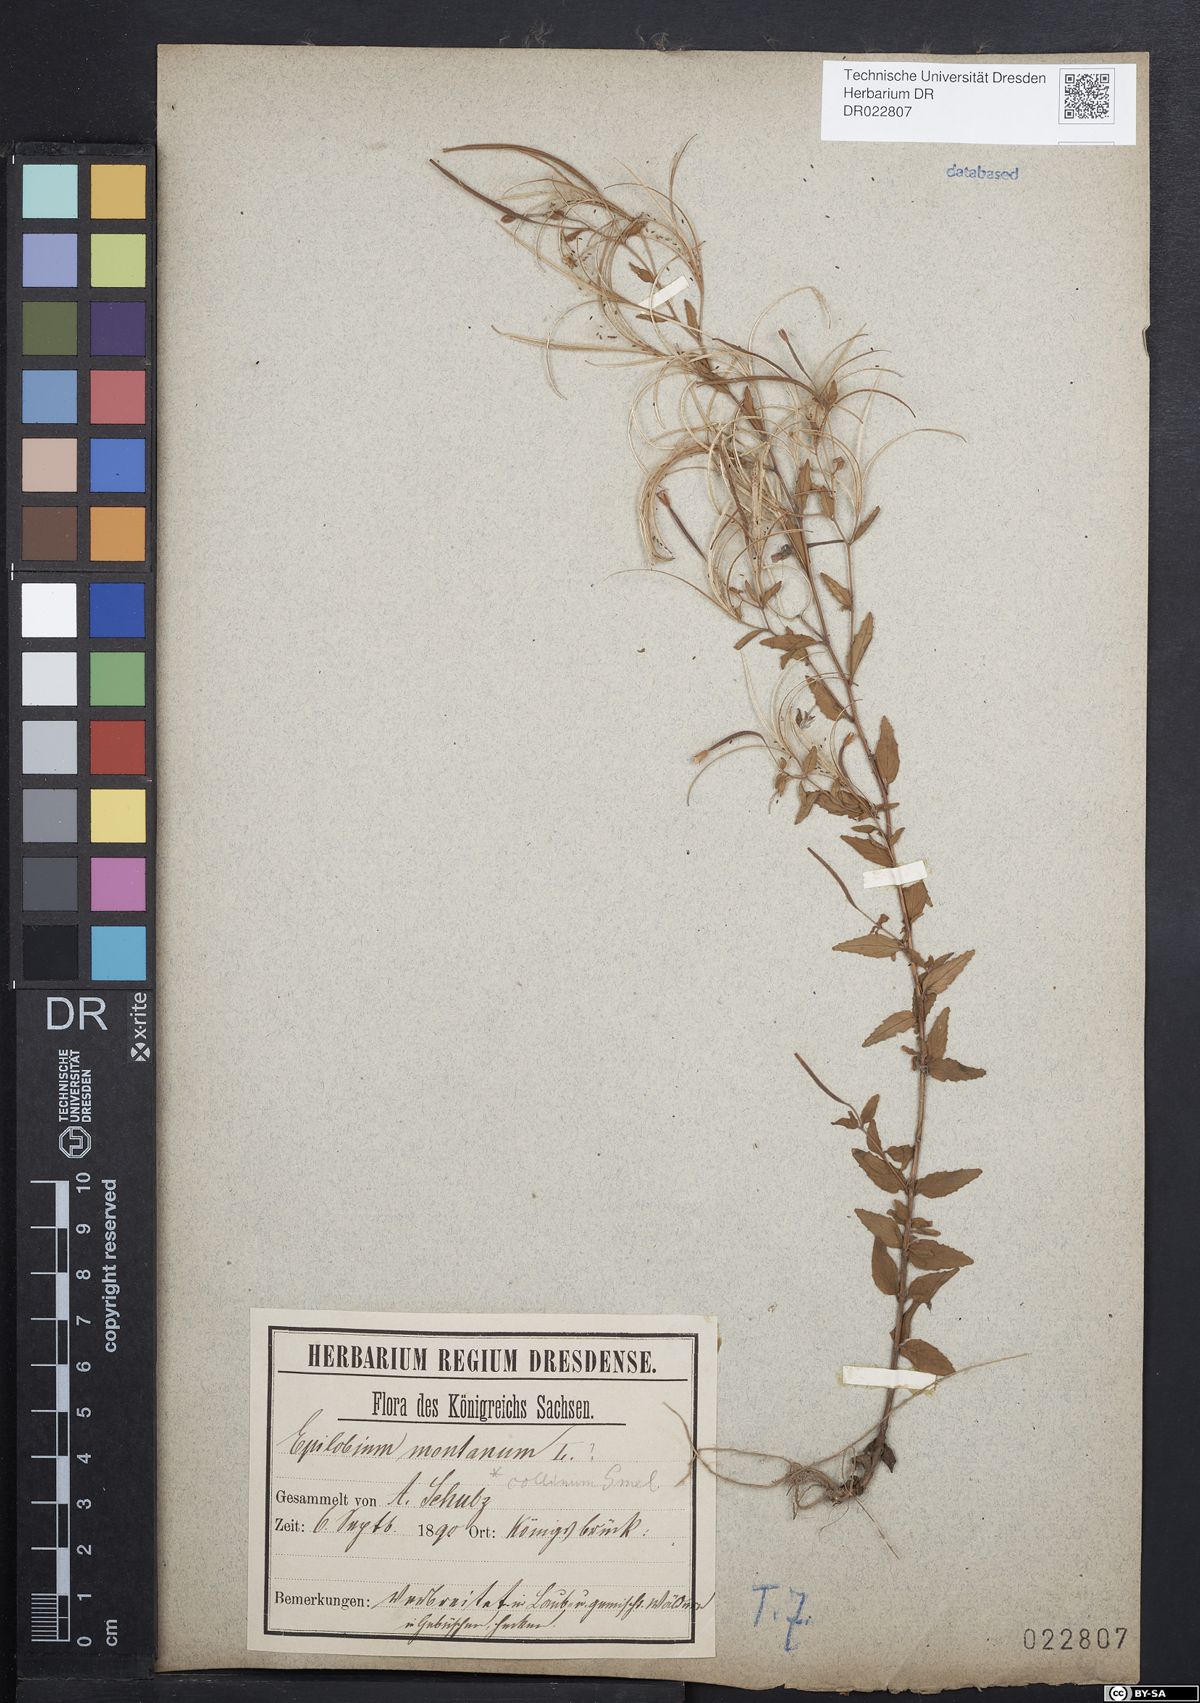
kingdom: Plantae
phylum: Tracheophyta
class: Magnoliopsida
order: Myrtales
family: Onagraceae
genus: Epilobium
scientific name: Epilobium collinum
